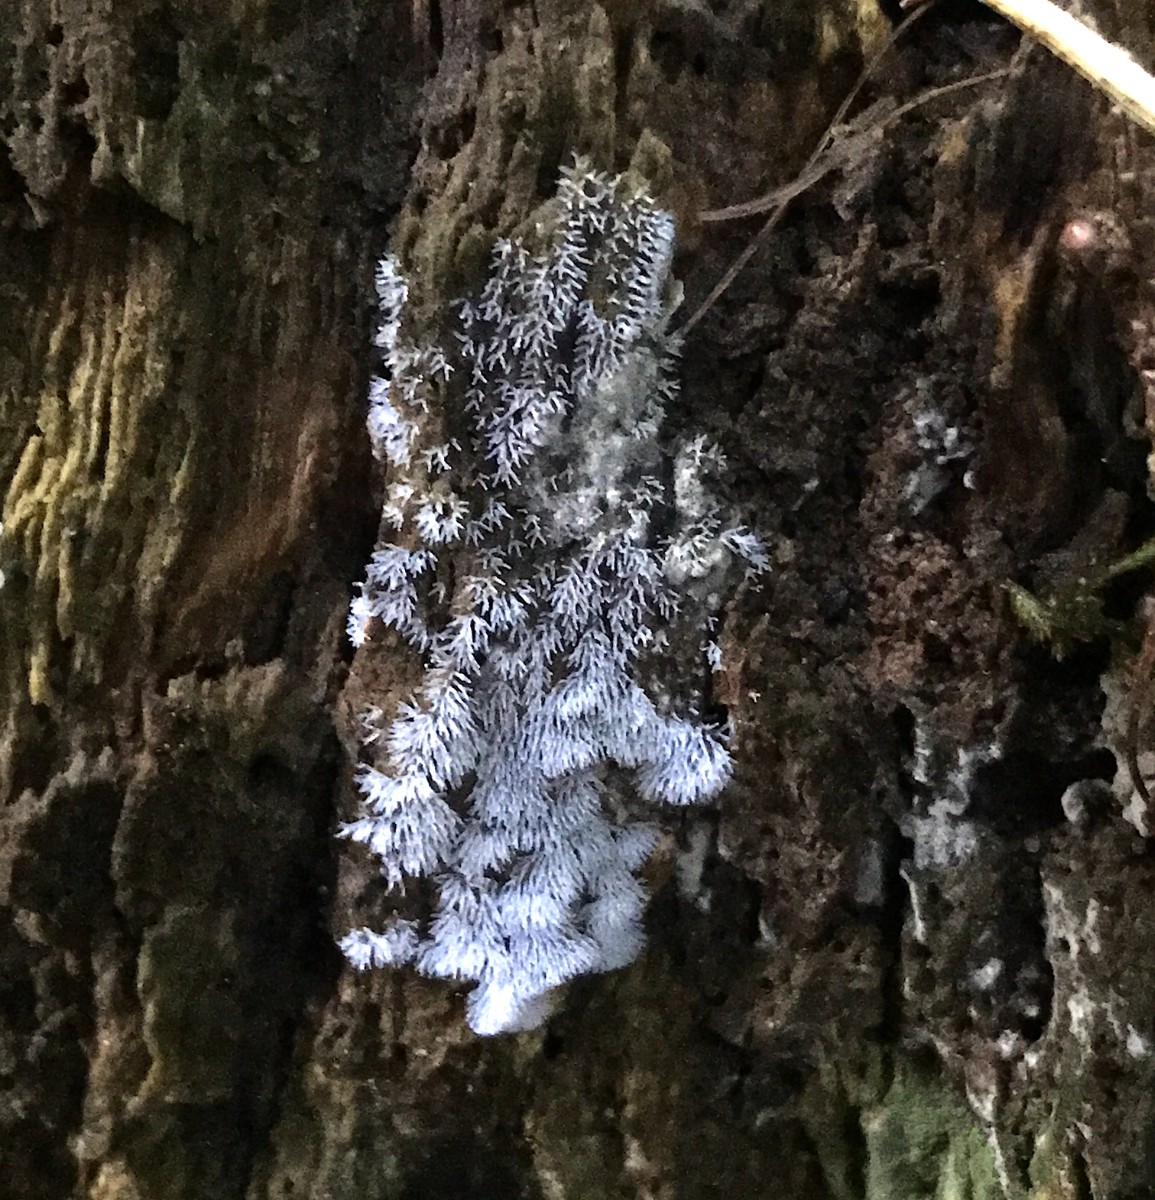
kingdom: Protozoa
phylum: Mycetozoa
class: Protosteliomycetes
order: Ceratiomyxales
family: Ceratiomyxaceae
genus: Ceratiomyxa
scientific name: Ceratiomyxa fruticulosa
